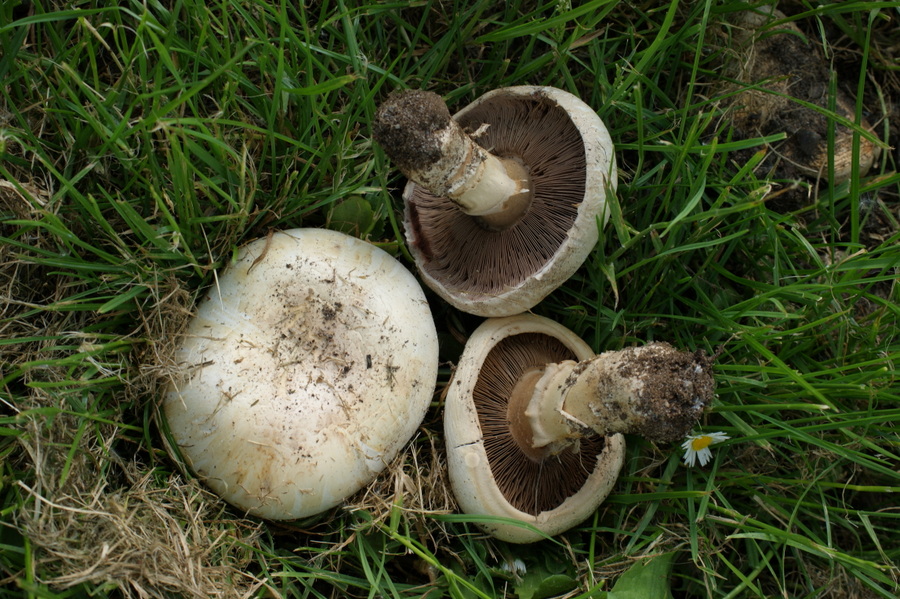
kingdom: Fungi
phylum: Basidiomycota
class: Agaricomycetes
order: Agaricales
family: Agaricaceae
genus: Agaricus
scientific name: Agaricus bitorquis
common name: vej-champignon
